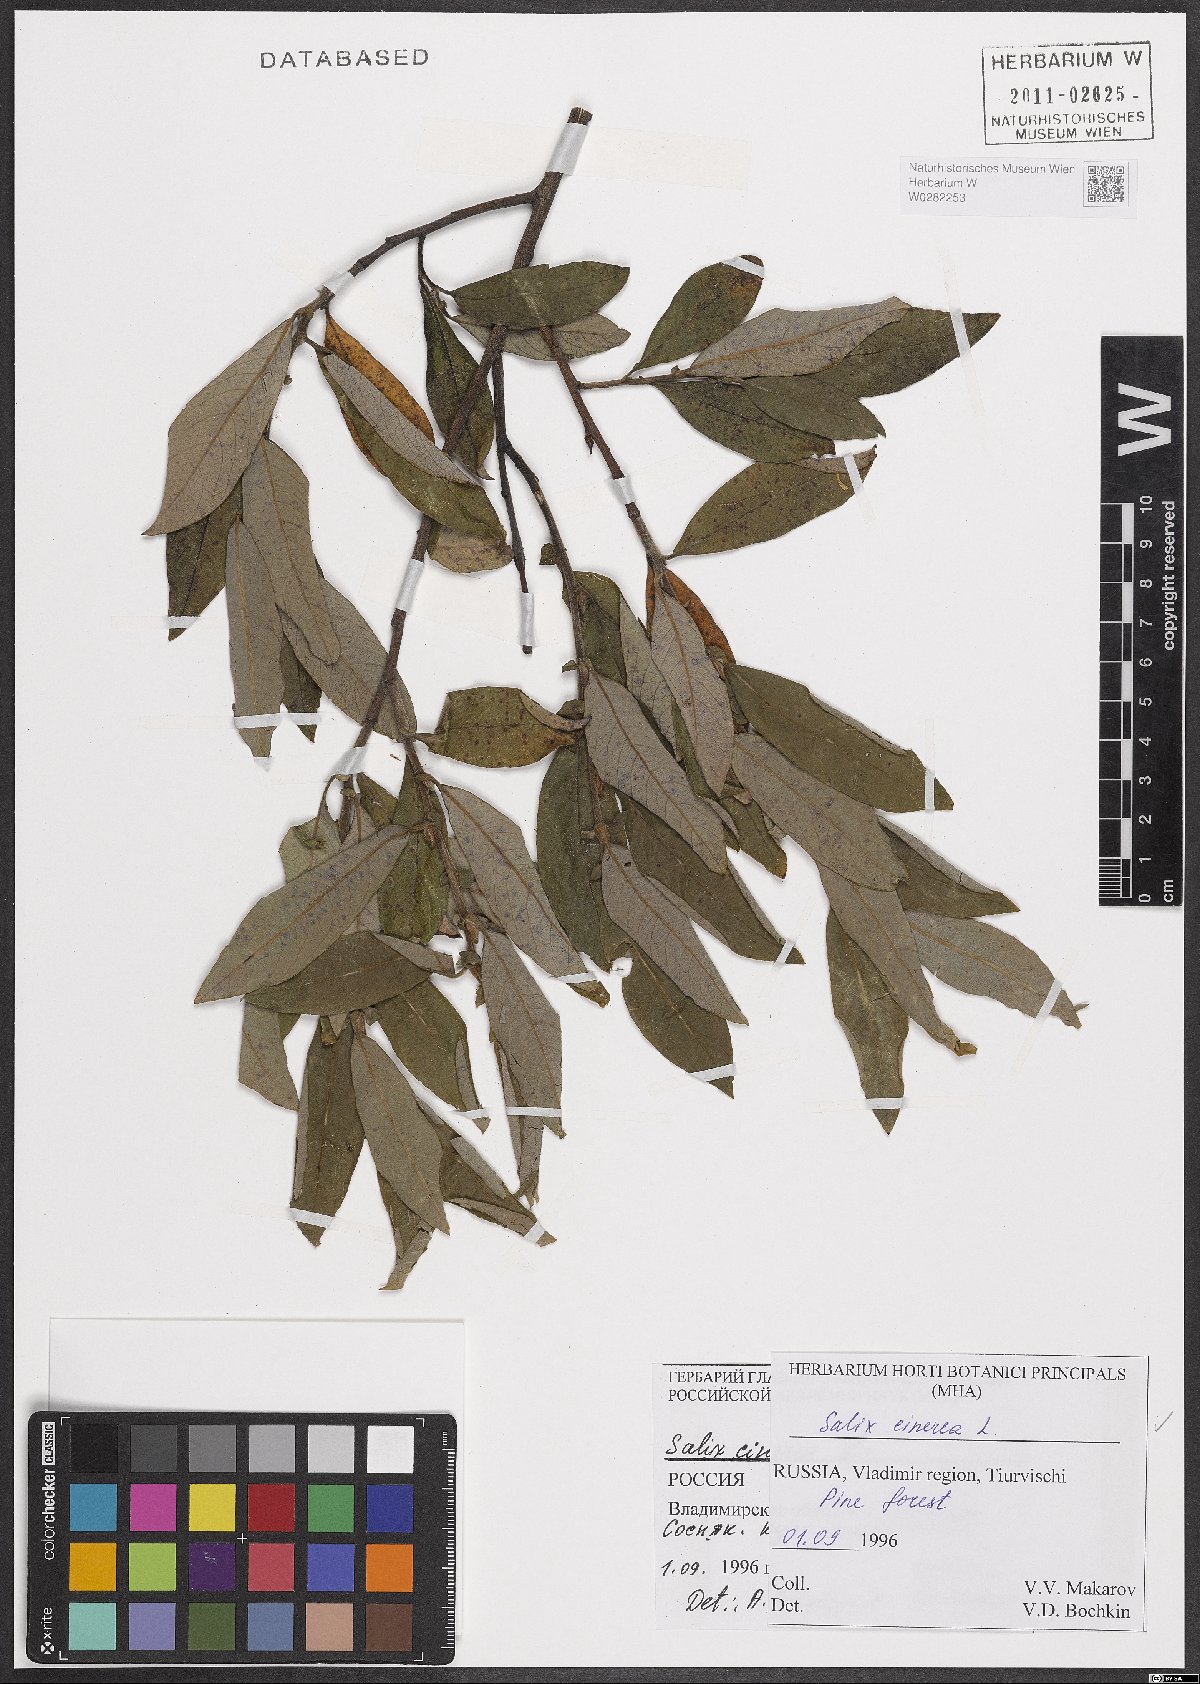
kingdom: Plantae
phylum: Tracheophyta
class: Magnoliopsida
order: Malpighiales
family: Salicaceae
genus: Salix
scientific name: Salix cinerea
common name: Common sallow
